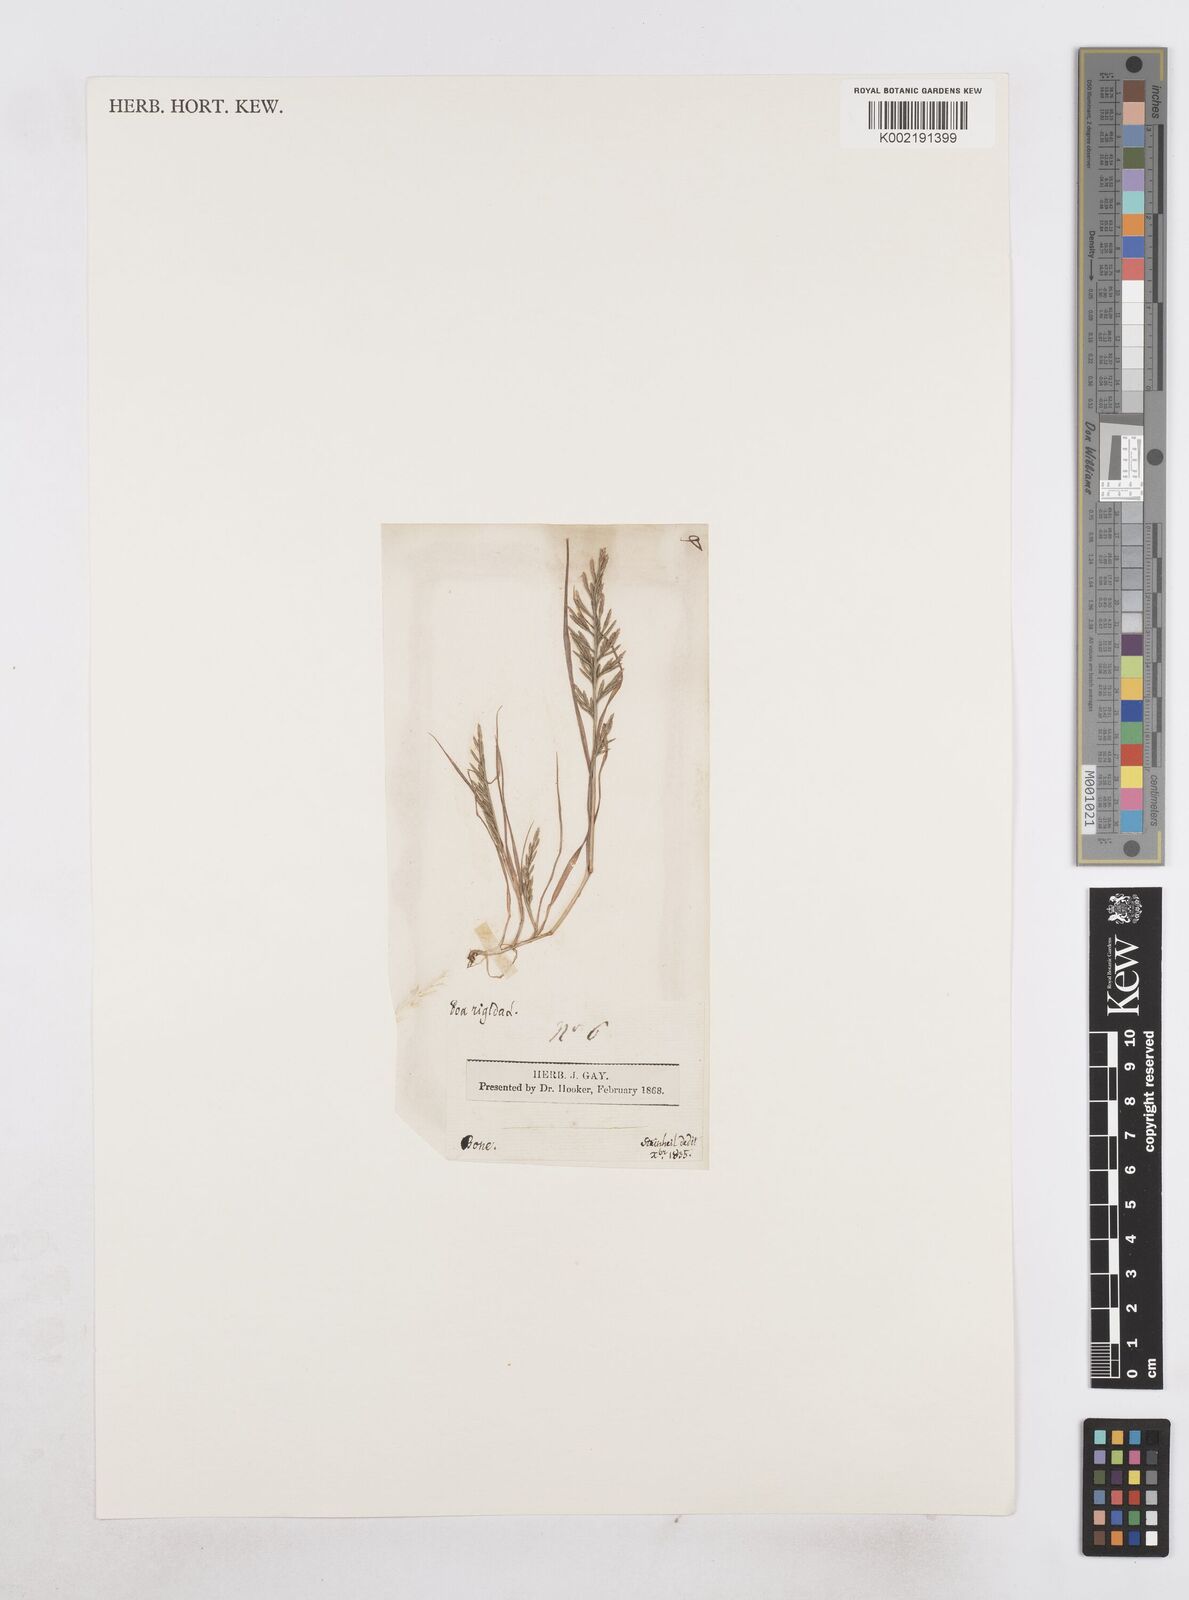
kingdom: Plantae
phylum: Tracheophyta
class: Liliopsida
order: Poales
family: Poaceae
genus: Catapodium
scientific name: Catapodium rigidum
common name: Fern-grass
